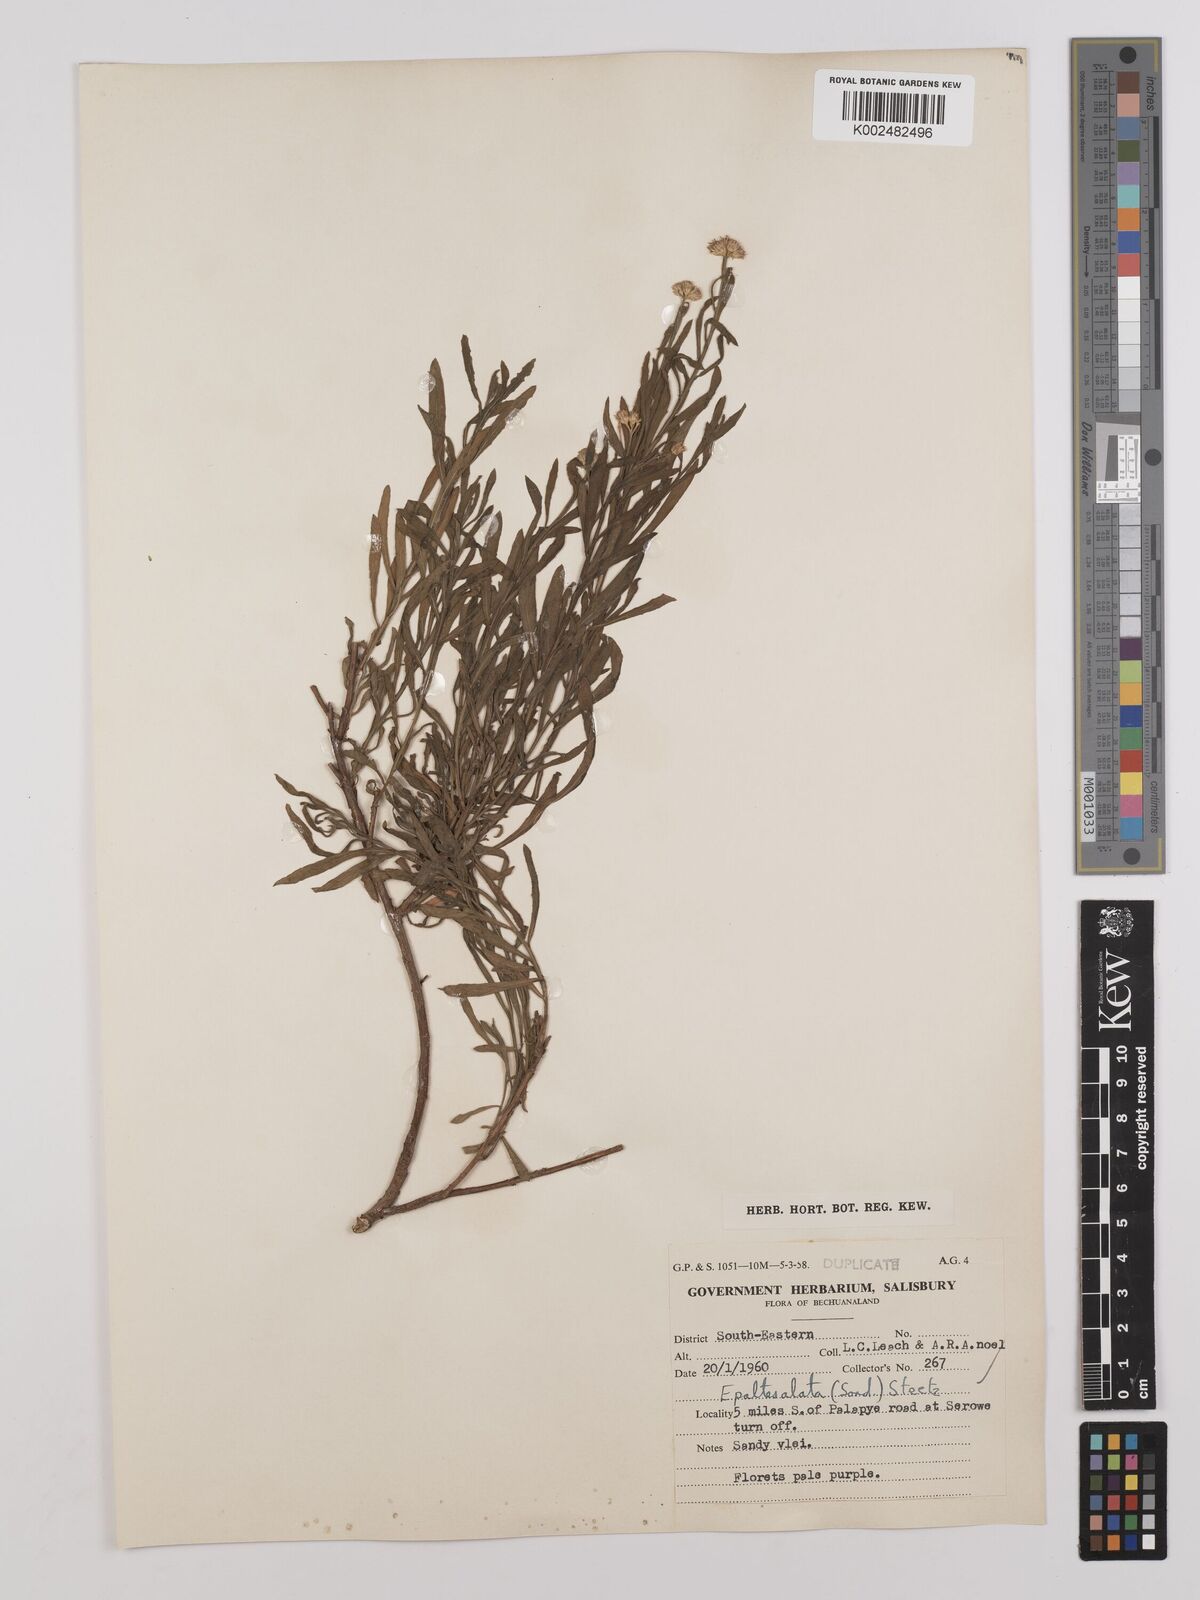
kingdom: Plantae
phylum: Tracheophyta
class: Magnoliopsida
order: Asterales
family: Asteraceae
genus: Litogyne
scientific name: Litogyne gariepina
